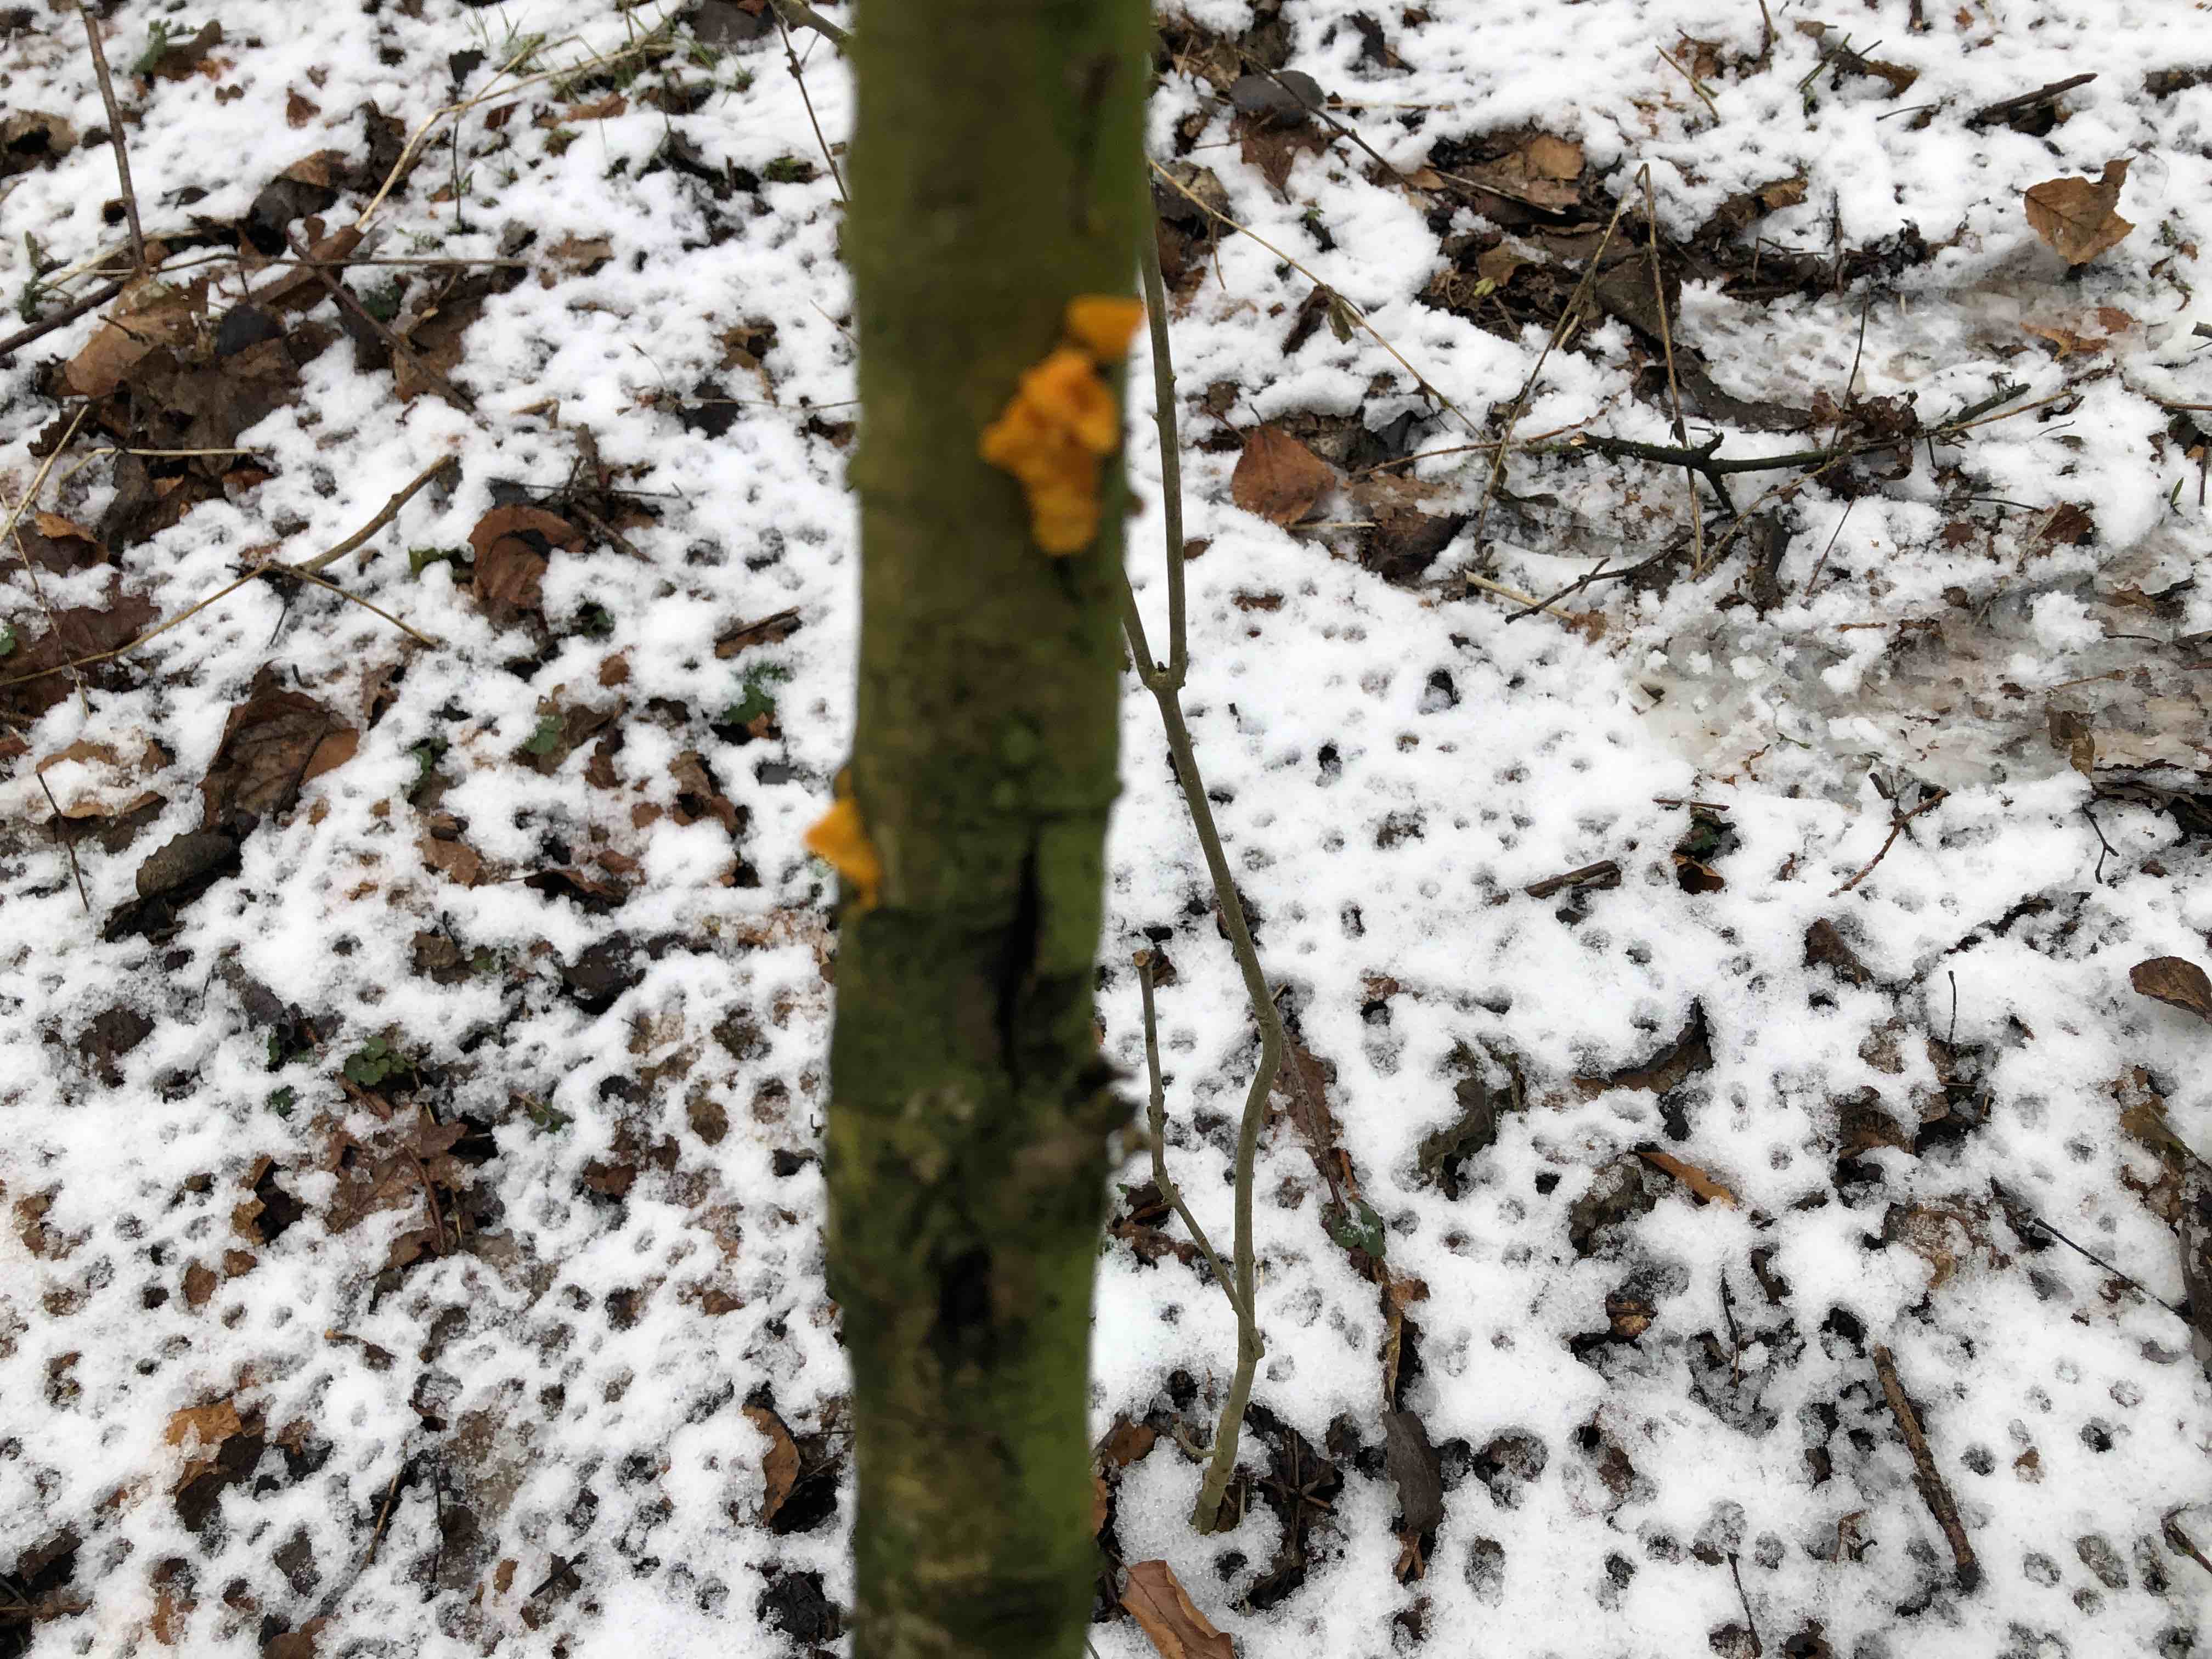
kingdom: Fungi
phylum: Basidiomycota
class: Tremellomycetes
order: Tremellales
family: Tremellaceae
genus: Tremella
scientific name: Tremella mesenterica
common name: gul bævresvamp
